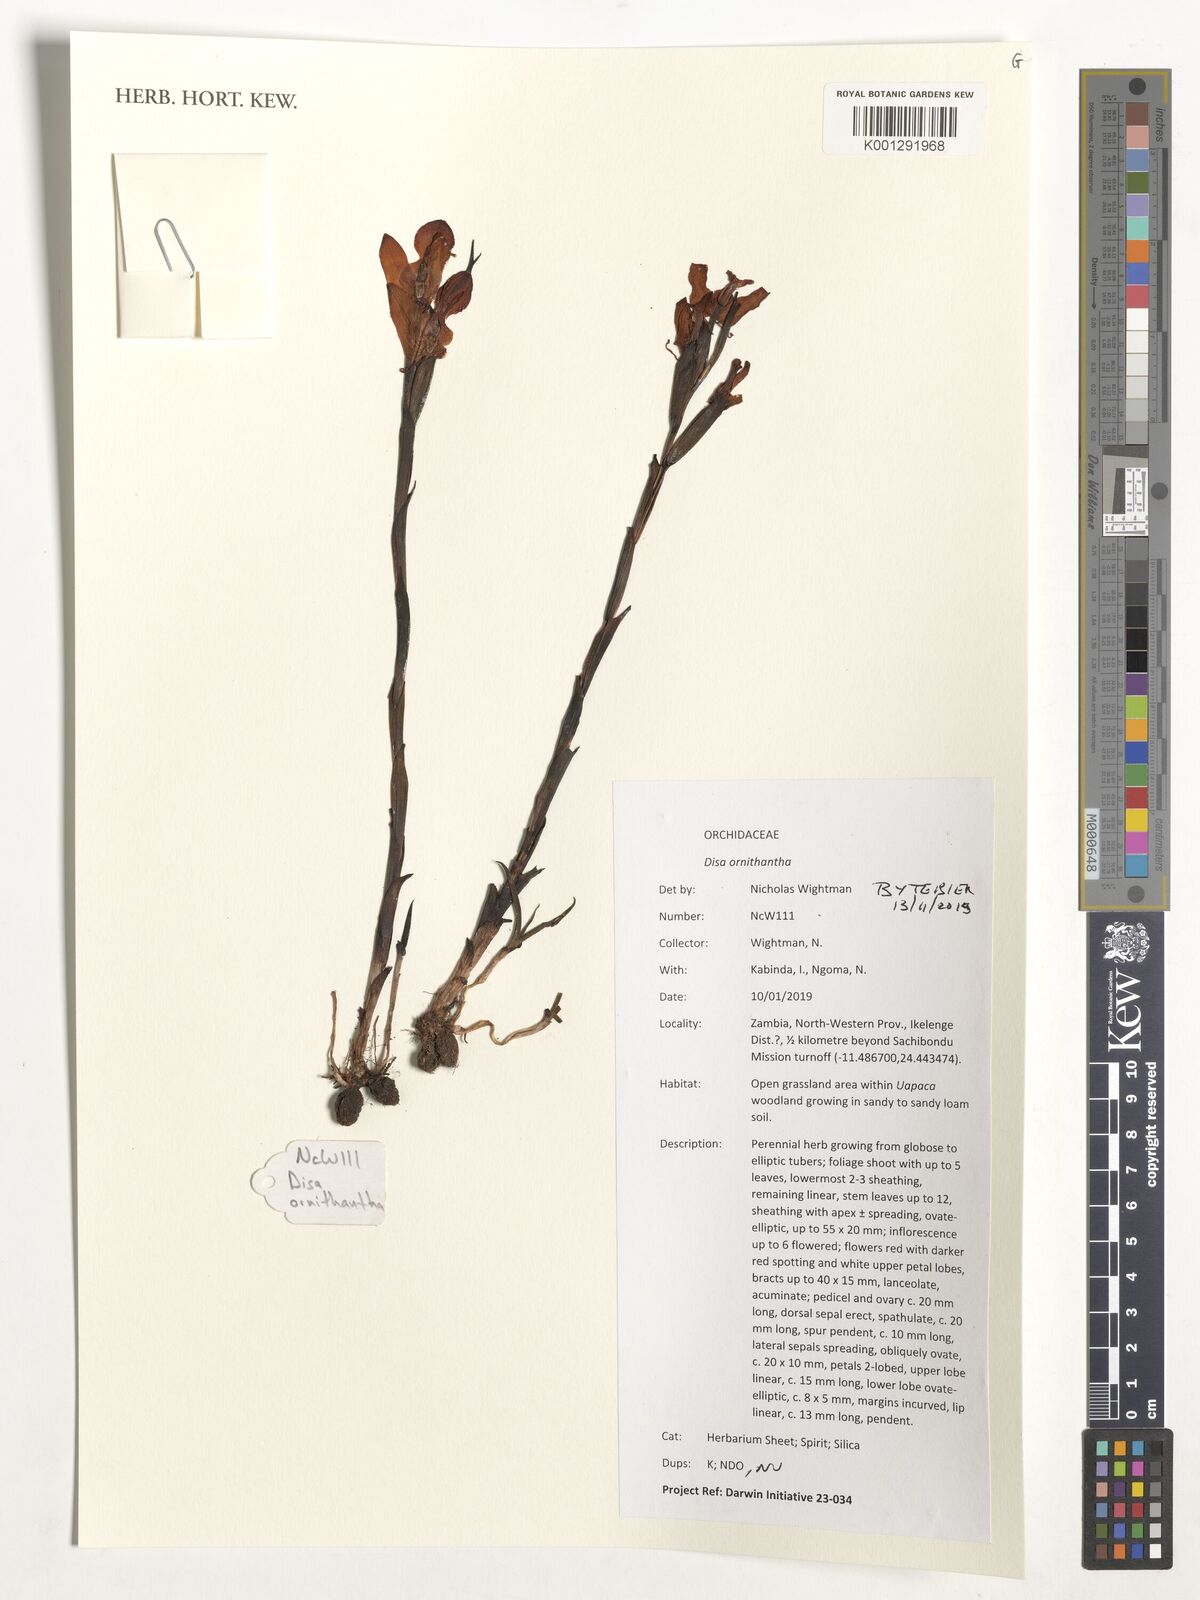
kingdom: Plantae
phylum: Tracheophyta
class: Liliopsida
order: Asparagales
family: Orchidaceae
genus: Disa
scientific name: Disa ornithantha
